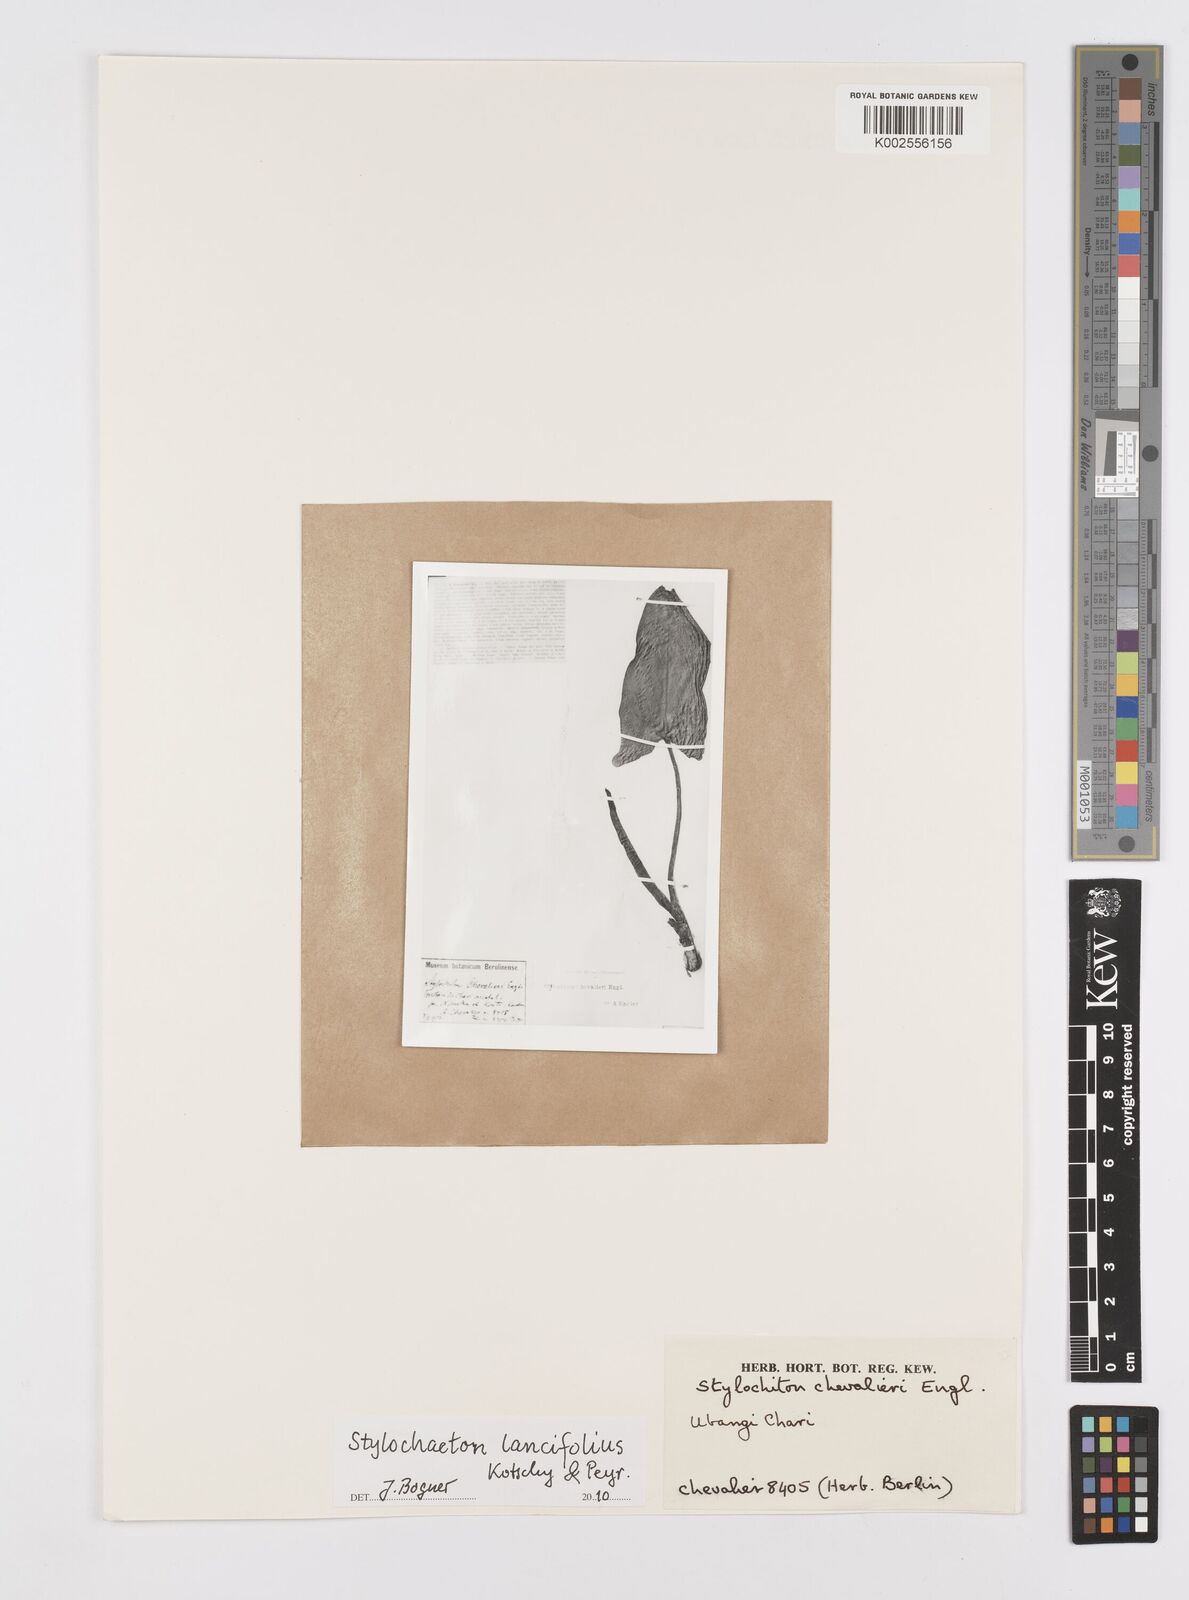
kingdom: Plantae
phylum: Tracheophyta
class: Liliopsida
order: Alismatales
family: Araceae
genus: Stylochaeton
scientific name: Stylochaeton lancifolium
